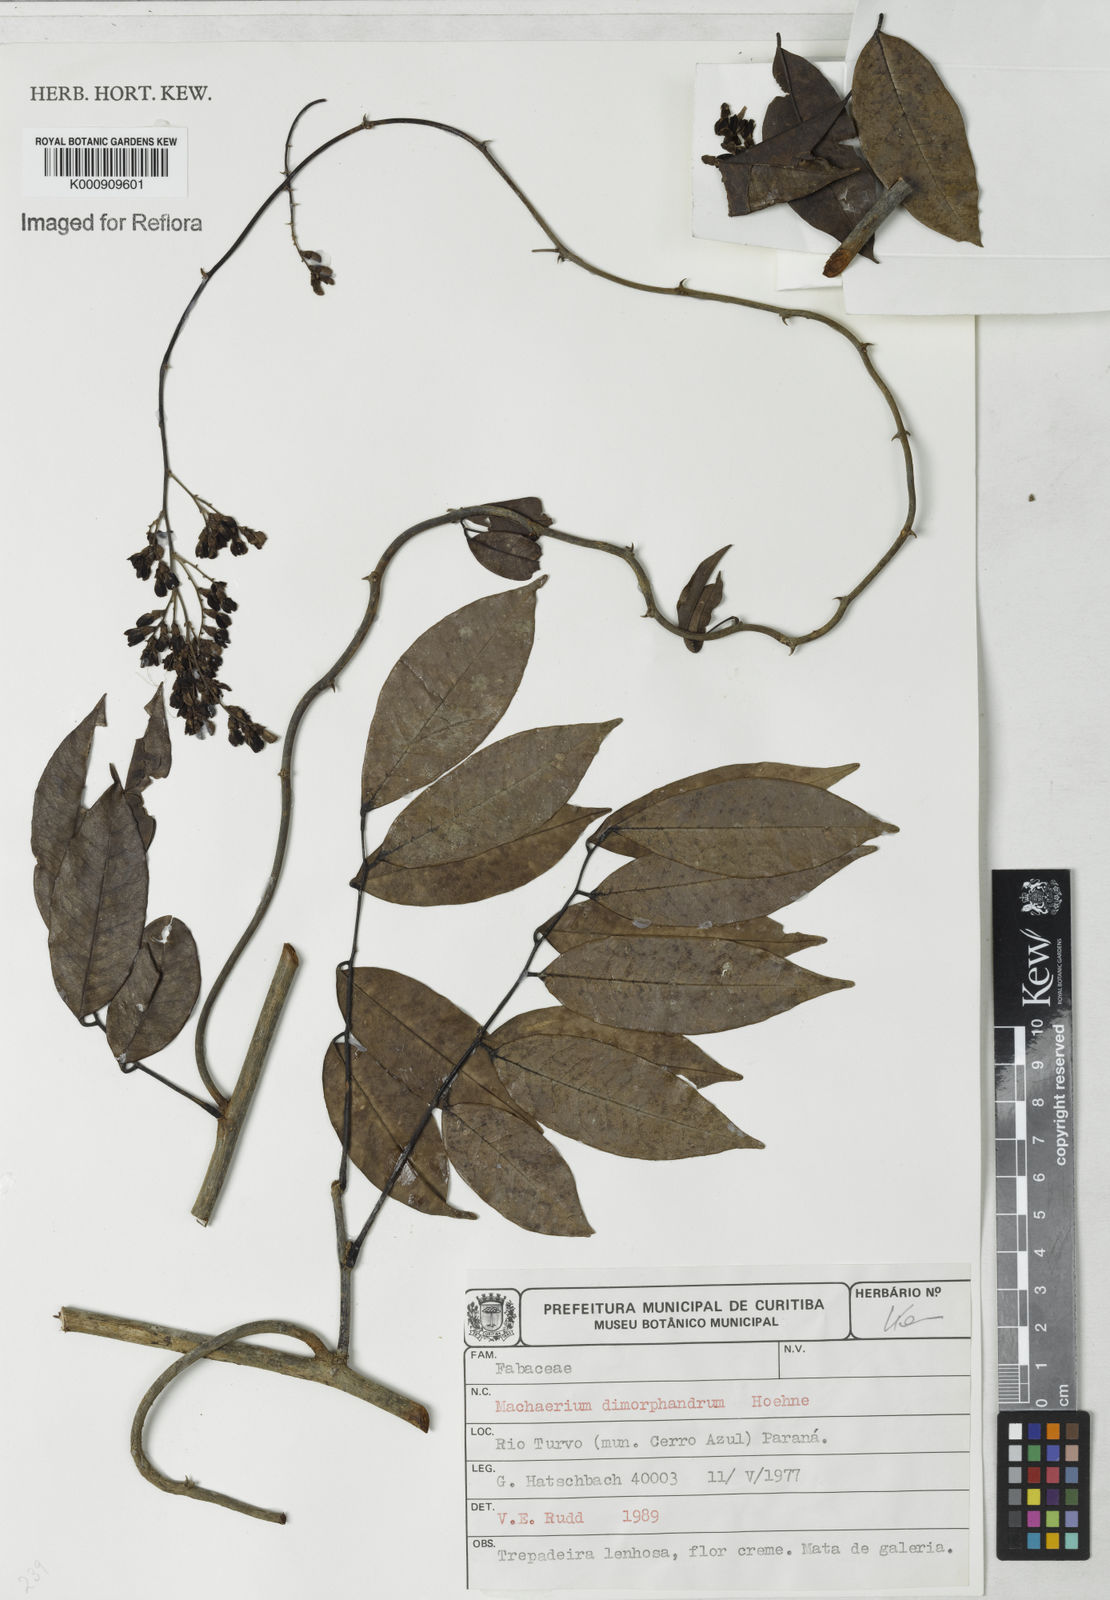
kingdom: Plantae
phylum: Tracheophyta
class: Magnoliopsida
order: Fabales
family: Fabaceae
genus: Machaerium
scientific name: Machaerium debile
